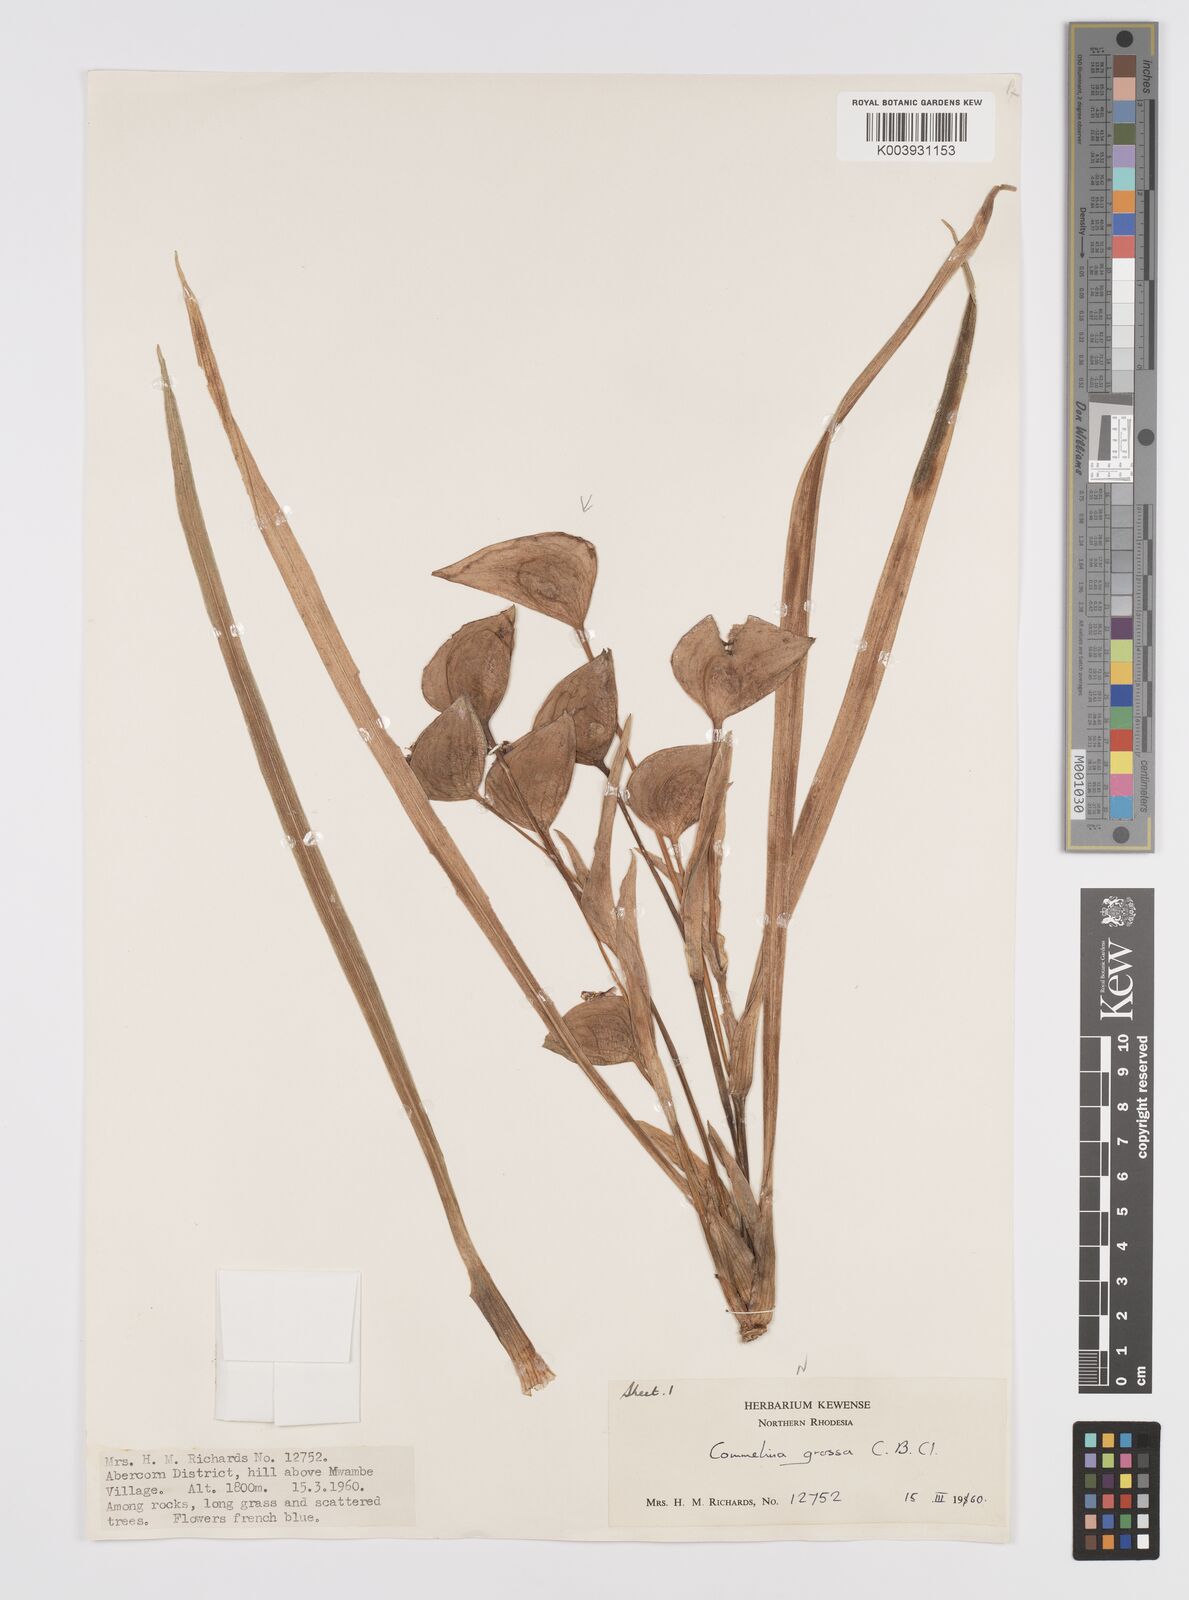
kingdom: Plantae
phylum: Tracheophyta
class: Liliopsida
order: Commelinales
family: Commelinaceae
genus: Commelina
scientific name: Commelina grossa
